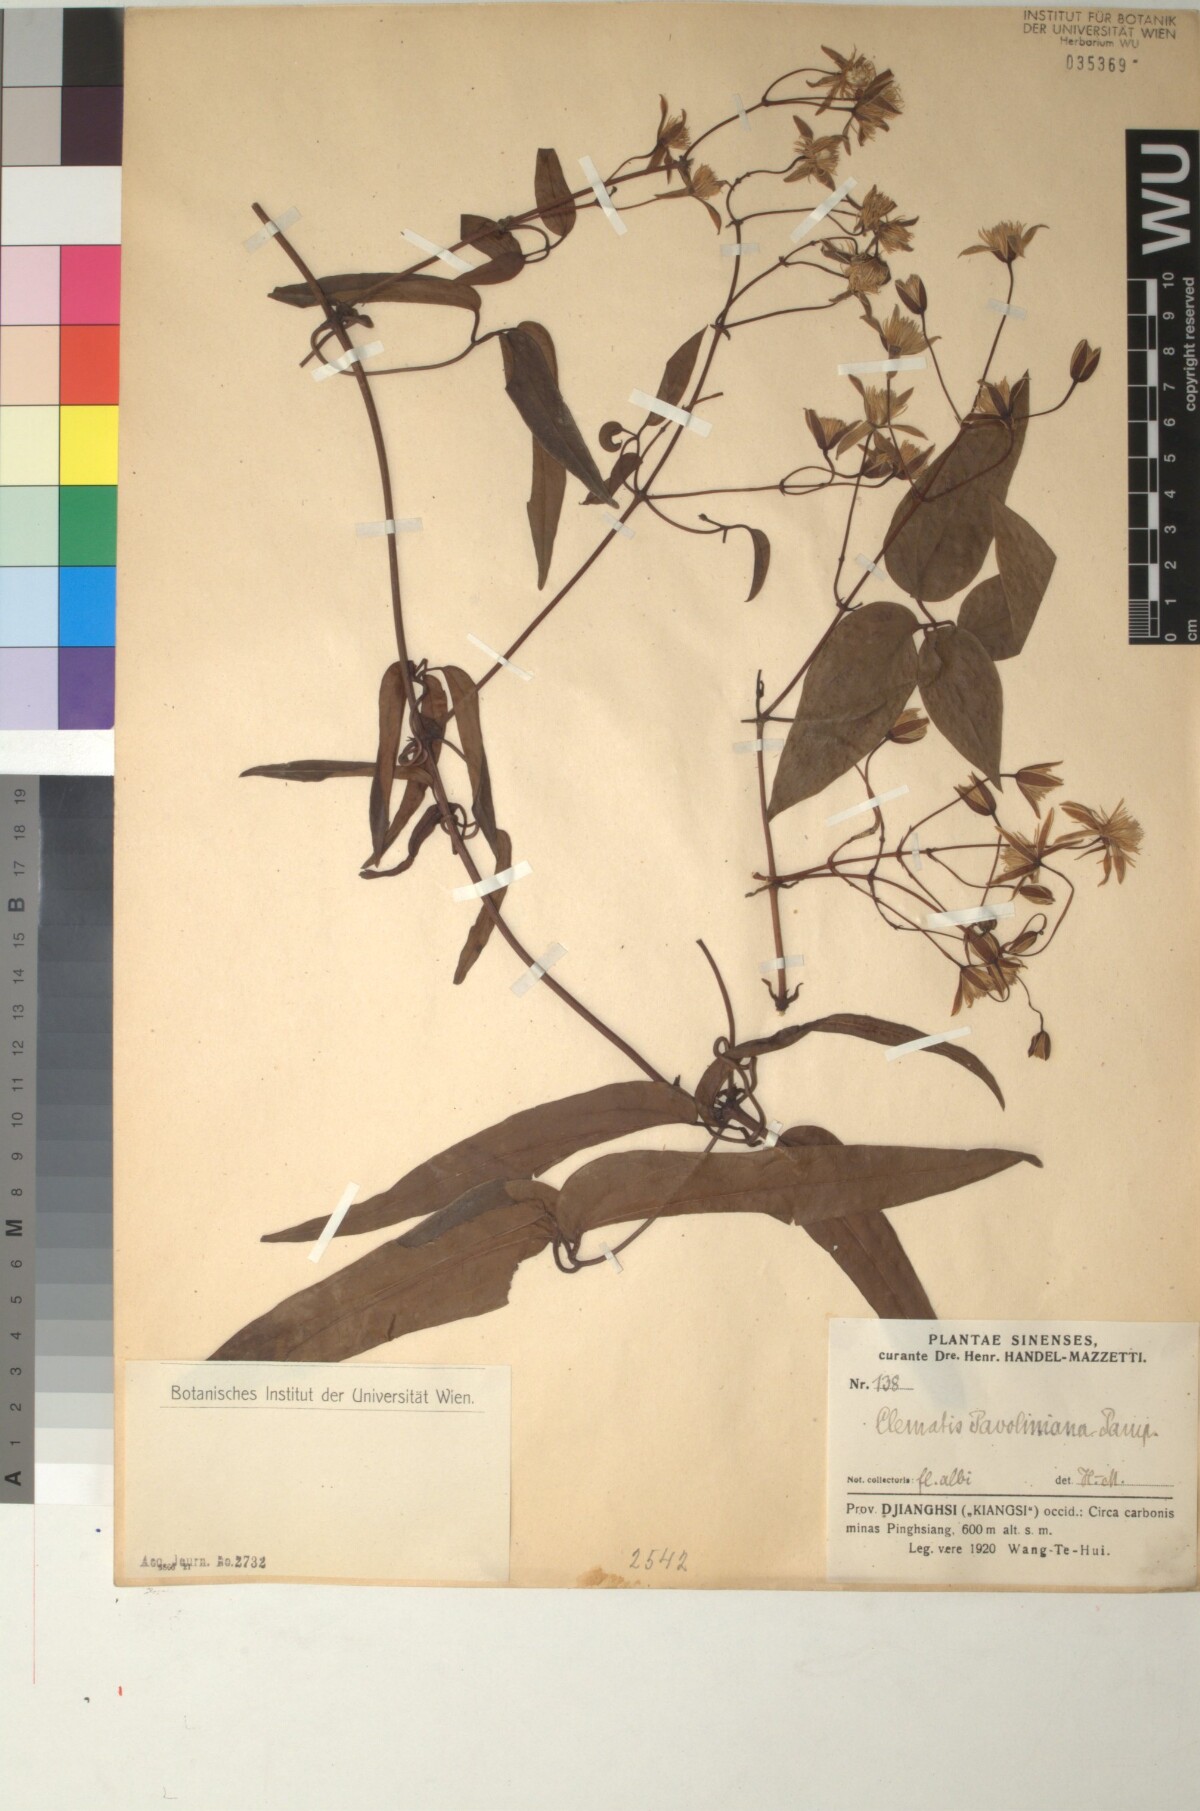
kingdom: Plantae
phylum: Tracheophyta
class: Magnoliopsida
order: Ranunculales
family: Ranunculaceae
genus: Clematis
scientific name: Clematis finetiana
